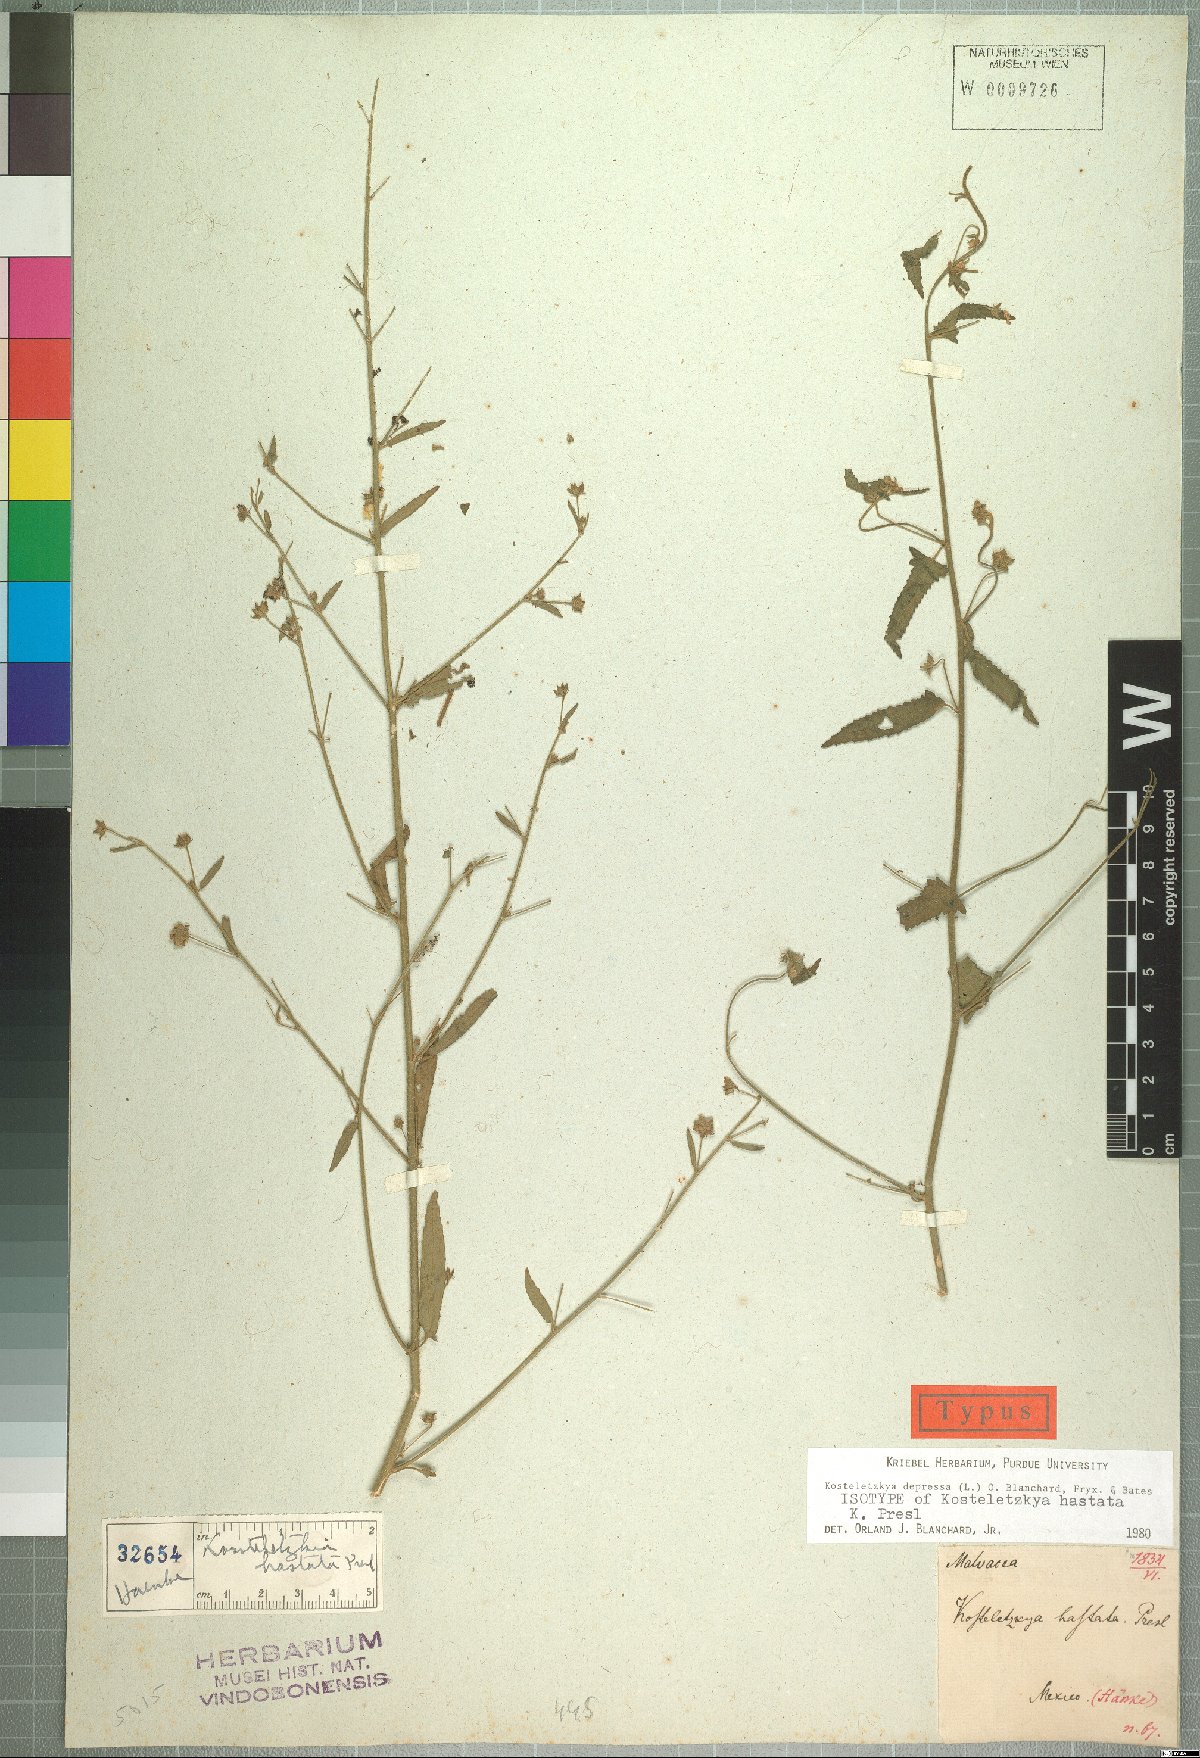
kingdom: Plantae
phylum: Tracheophyta
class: Magnoliopsida
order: Malvales
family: Malvaceae
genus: Kosteletzkya
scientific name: Kosteletzkya depressa
